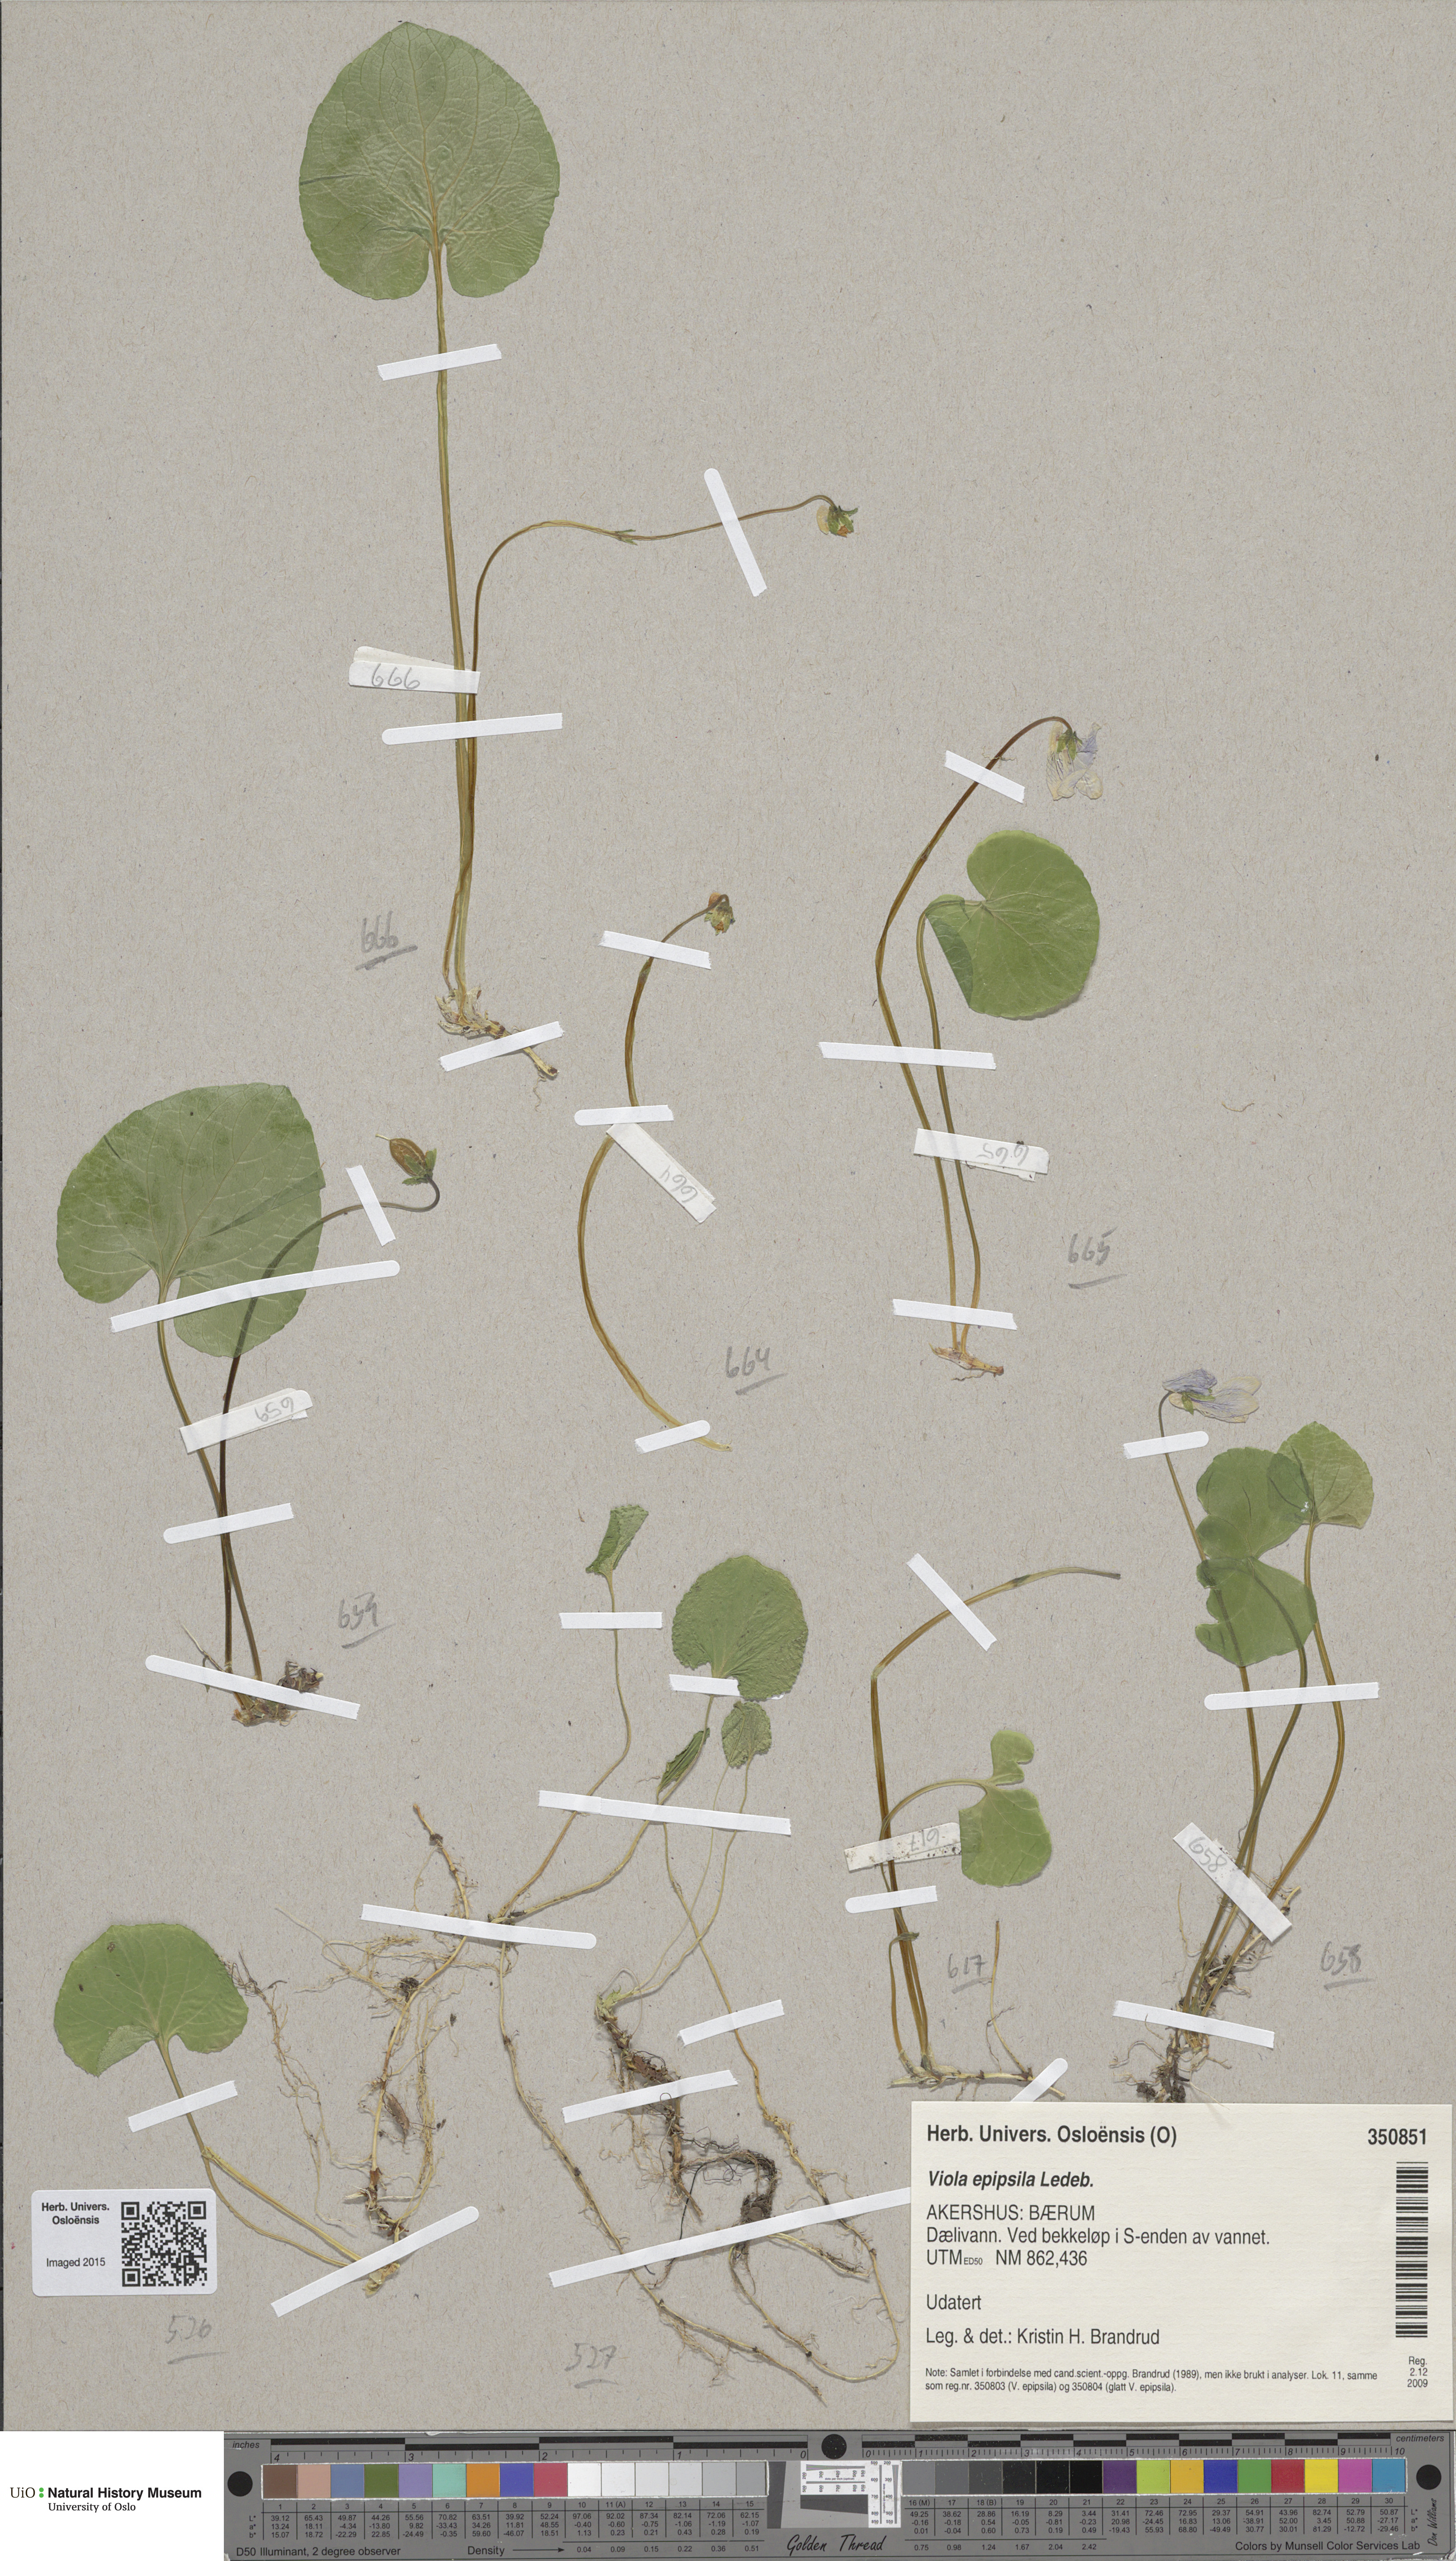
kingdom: Plantae
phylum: Tracheophyta
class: Magnoliopsida
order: Malpighiales
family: Violaceae
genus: Viola
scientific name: Viola epipsila
